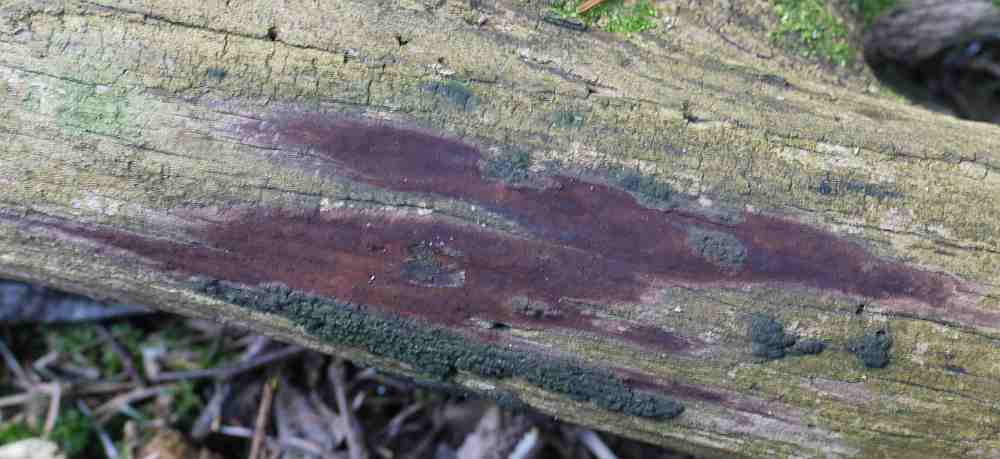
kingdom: Fungi
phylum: Ascomycota
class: Sordariomycetes
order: Xylariales
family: Hypoxylaceae
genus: Hypoxylon
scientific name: Hypoxylon macrocarpum
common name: skorpe-kulbær
